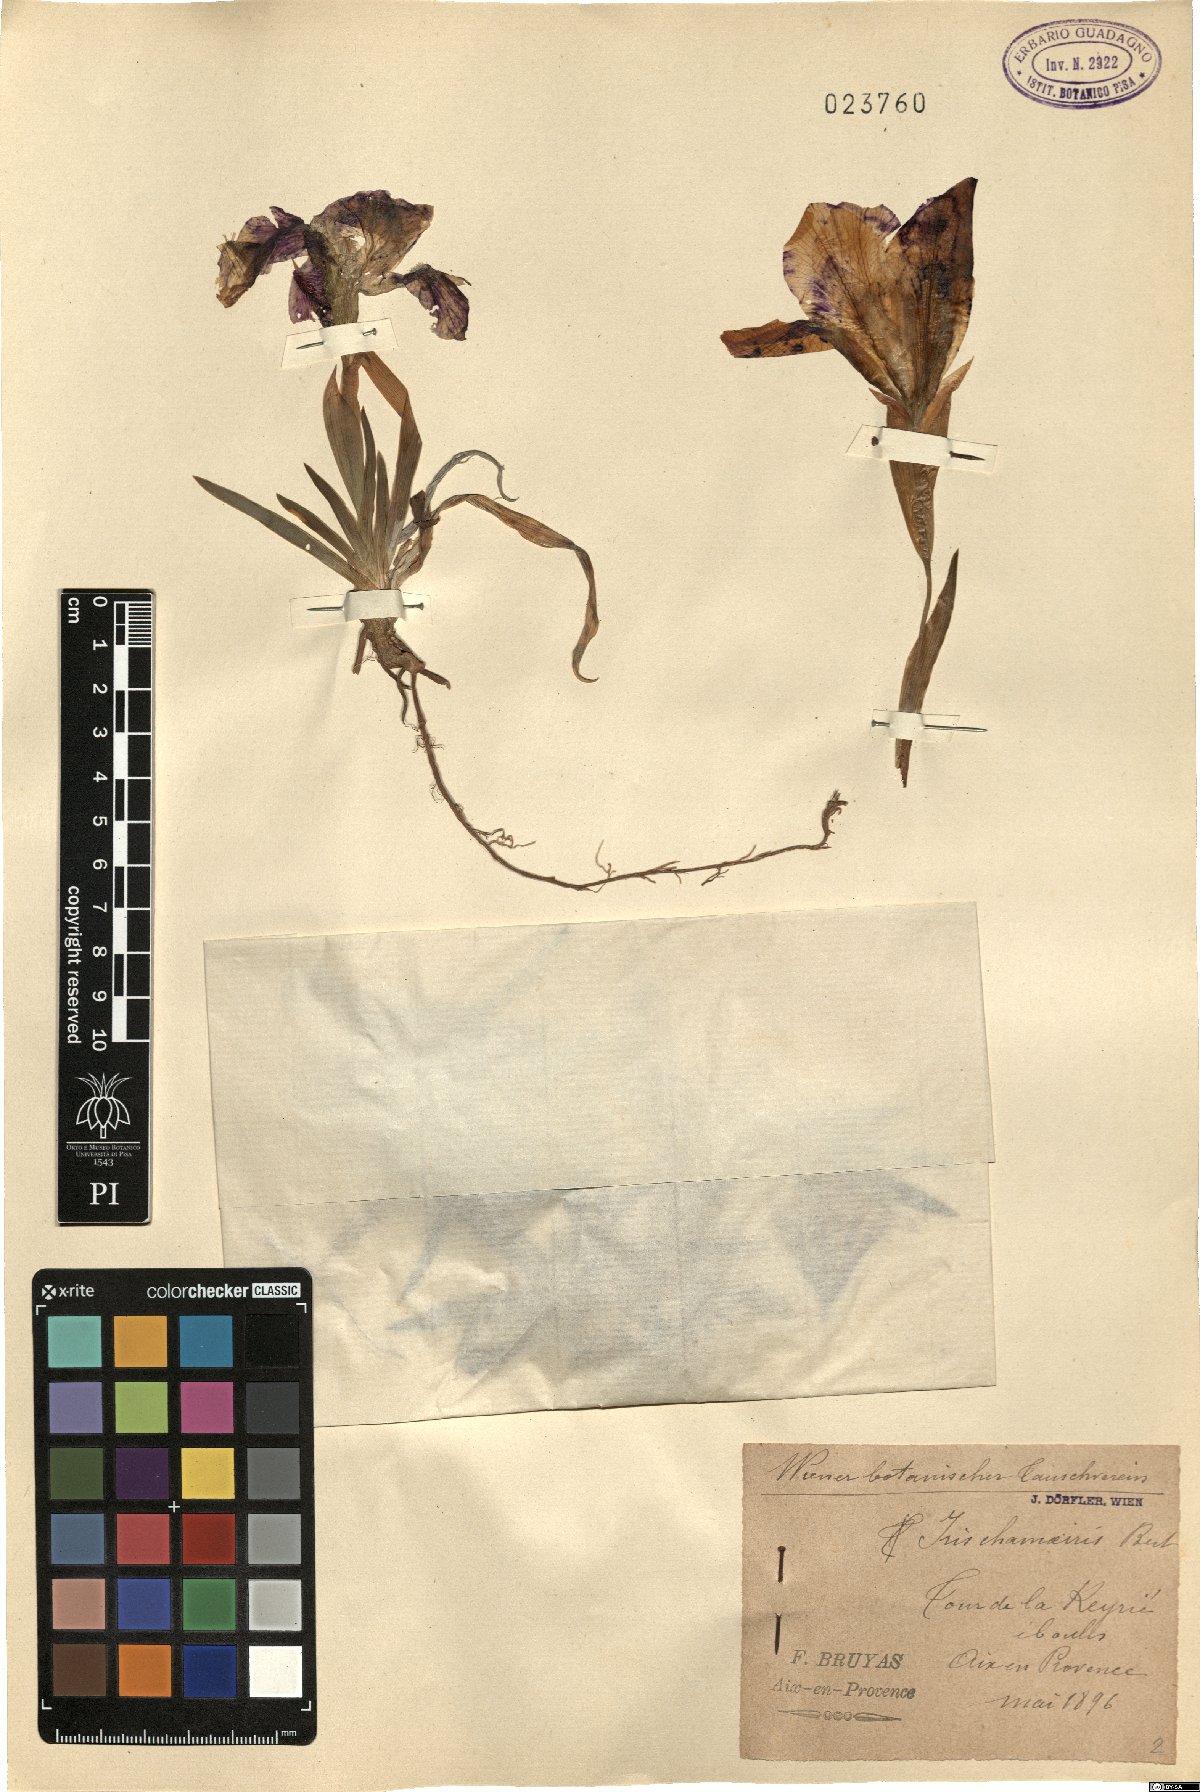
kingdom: Plantae
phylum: Tracheophyta
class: Liliopsida
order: Asparagales
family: Iridaceae
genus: Iris
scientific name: Iris lutescens
